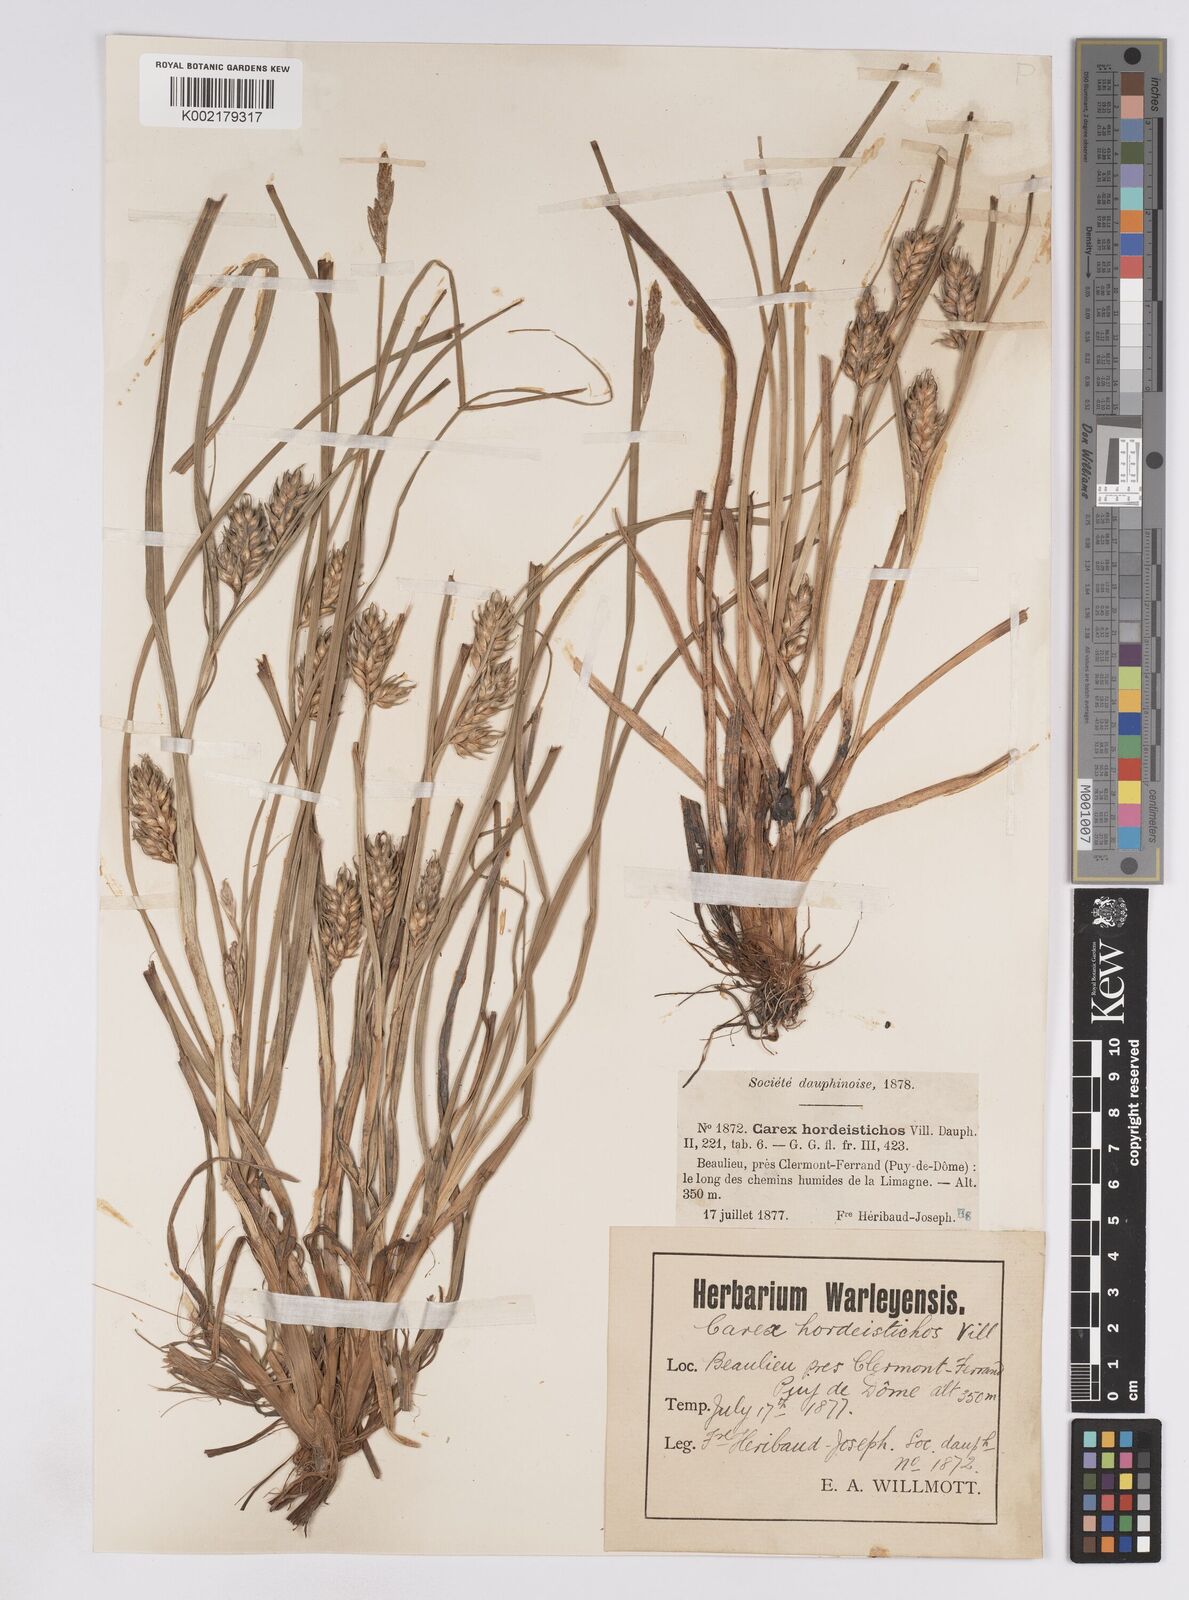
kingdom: Plantae
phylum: Tracheophyta
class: Liliopsida
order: Poales
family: Cyperaceae
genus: Carex
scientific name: Carex hordeistichos
